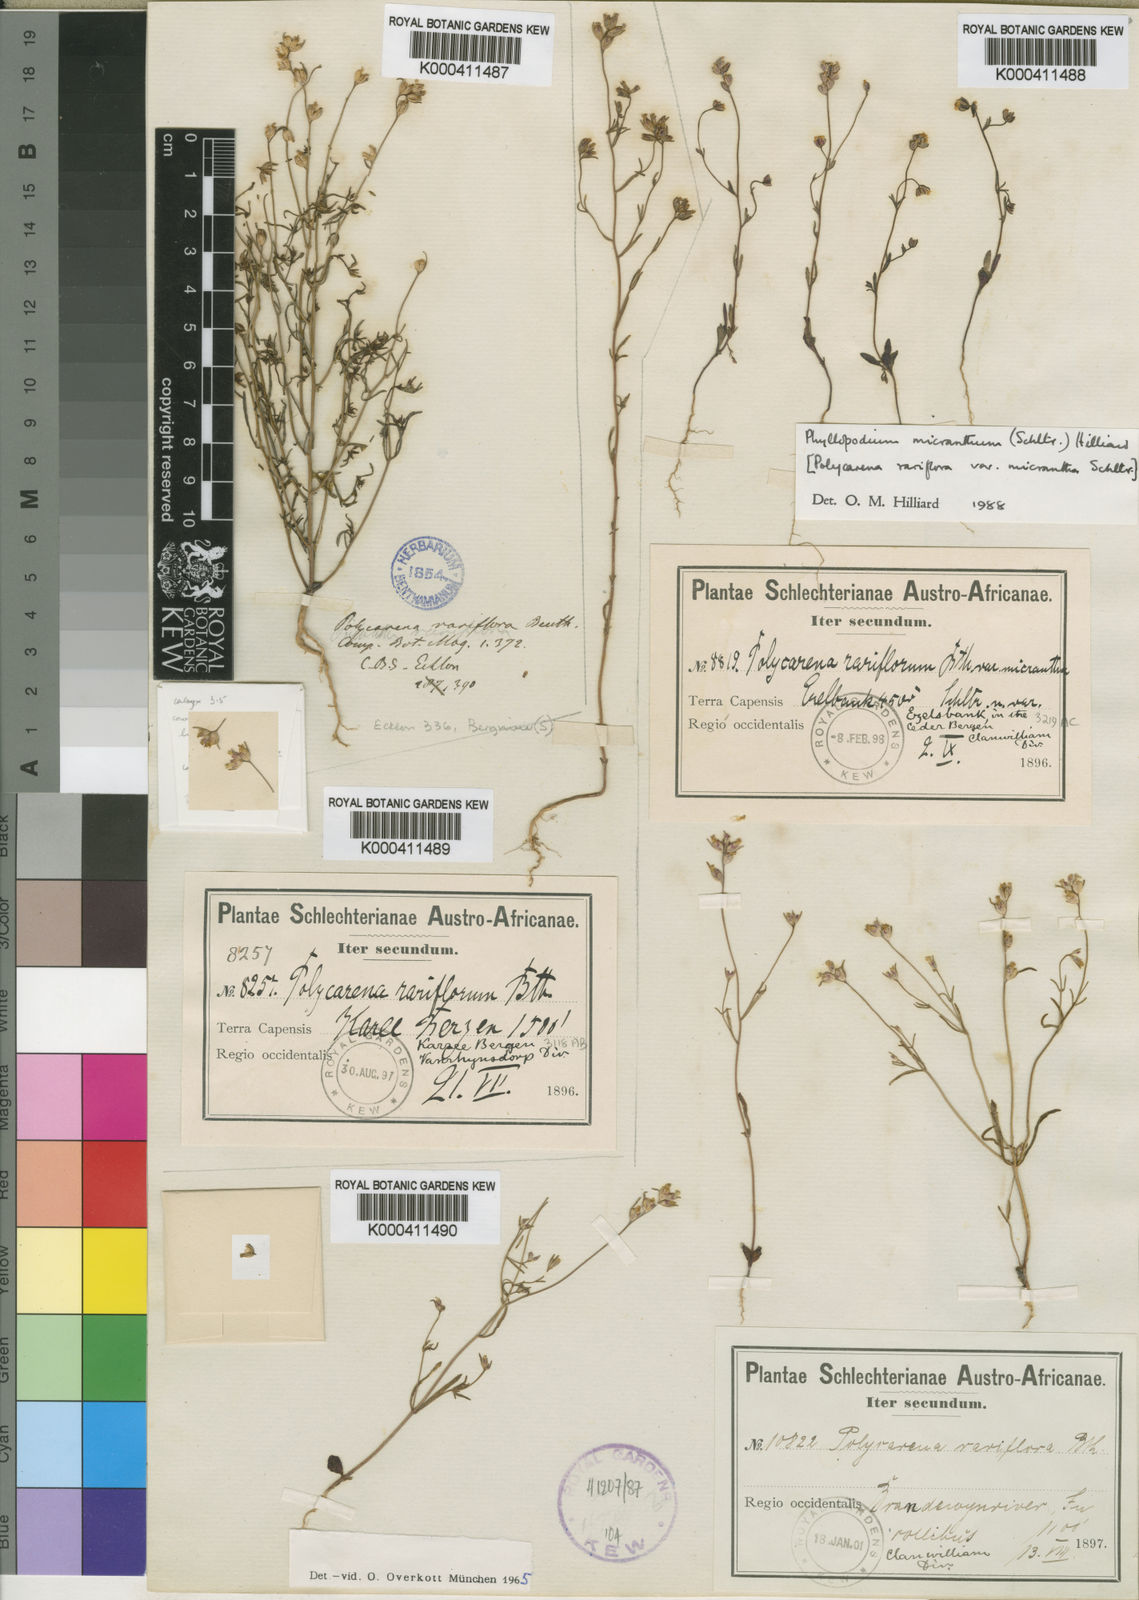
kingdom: Plantae
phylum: Tracheophyta
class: Magnoliopsida
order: Lamiales
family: Scrophulariaceae
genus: Phyllopodium
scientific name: Phyllopodium micranthum
